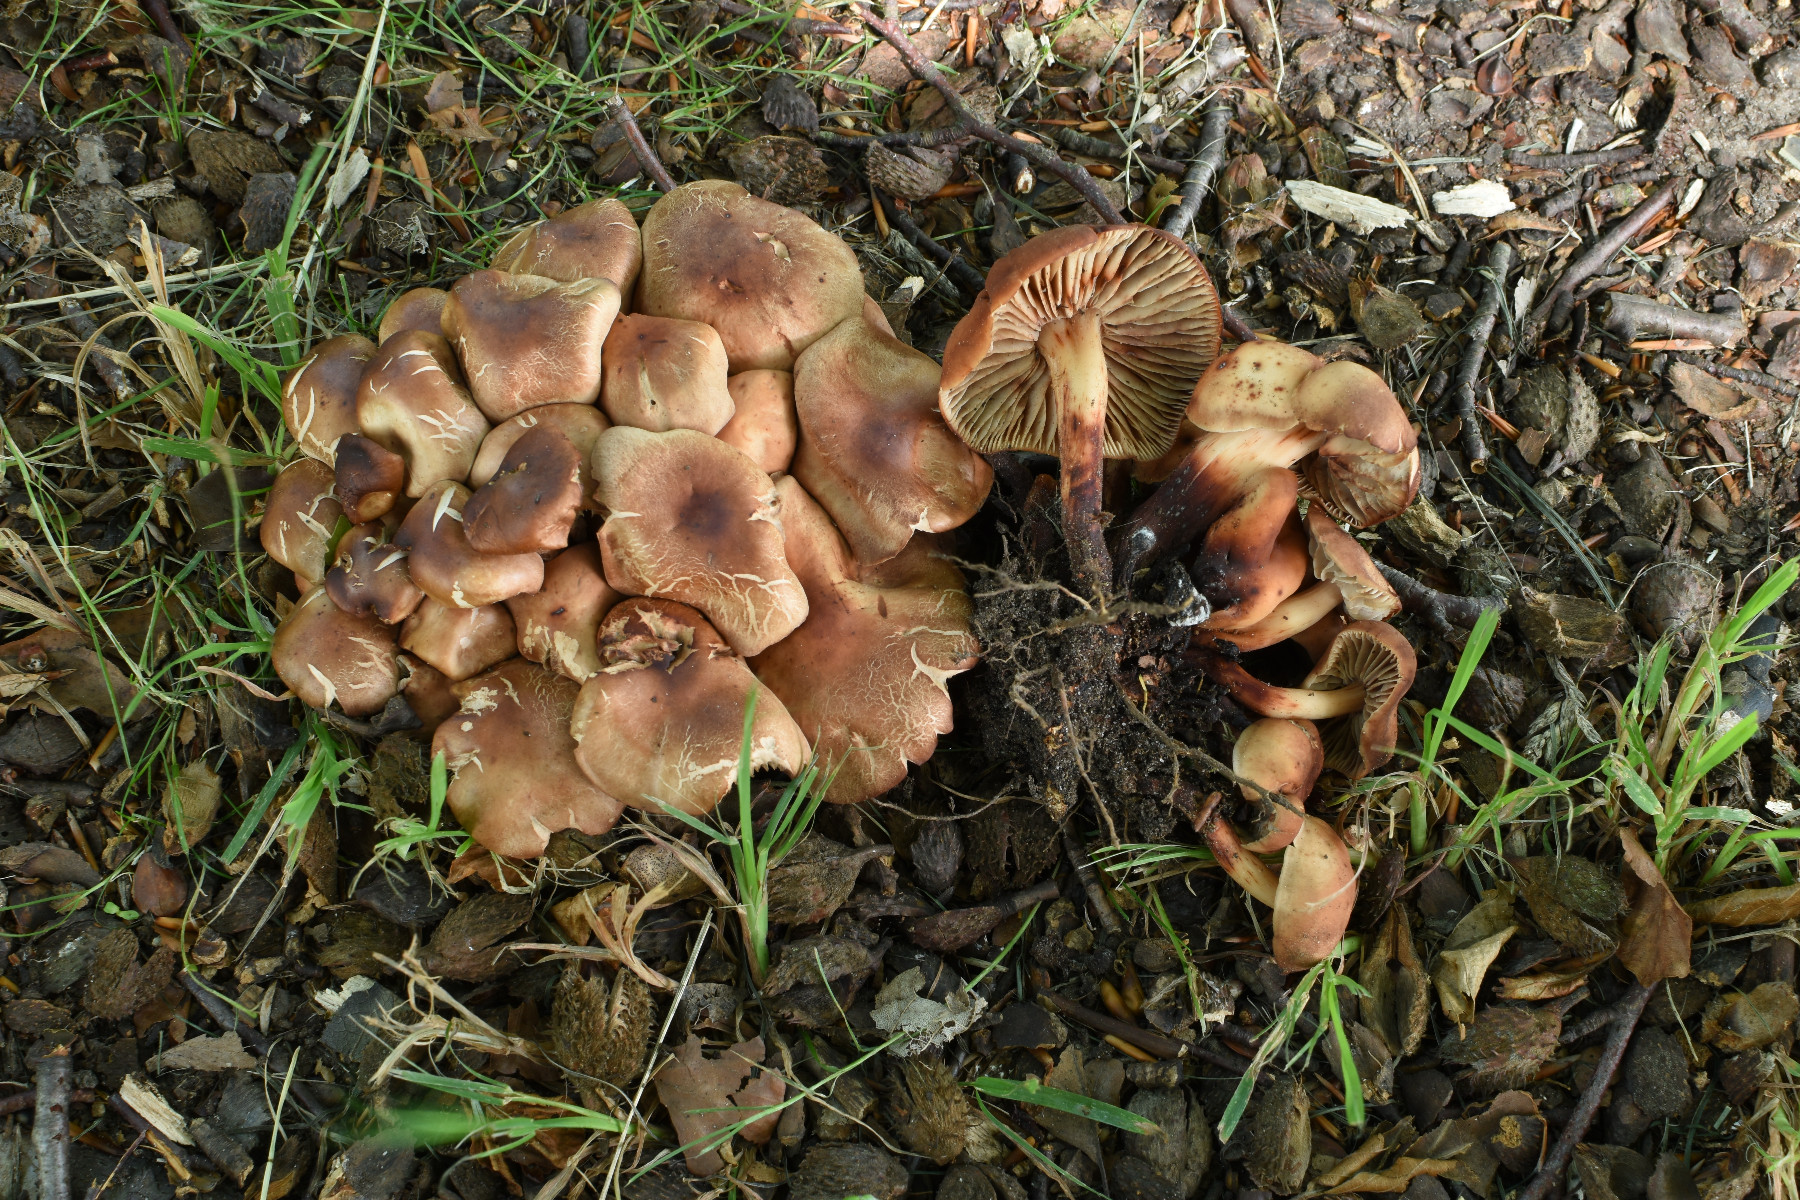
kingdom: Fungi
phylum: Basidiomycota
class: Agaricomycetes
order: Agaricales
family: Omphalotaceae
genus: Gymnopus
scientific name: Gymnopus fusipes
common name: tenstokket fladhat
